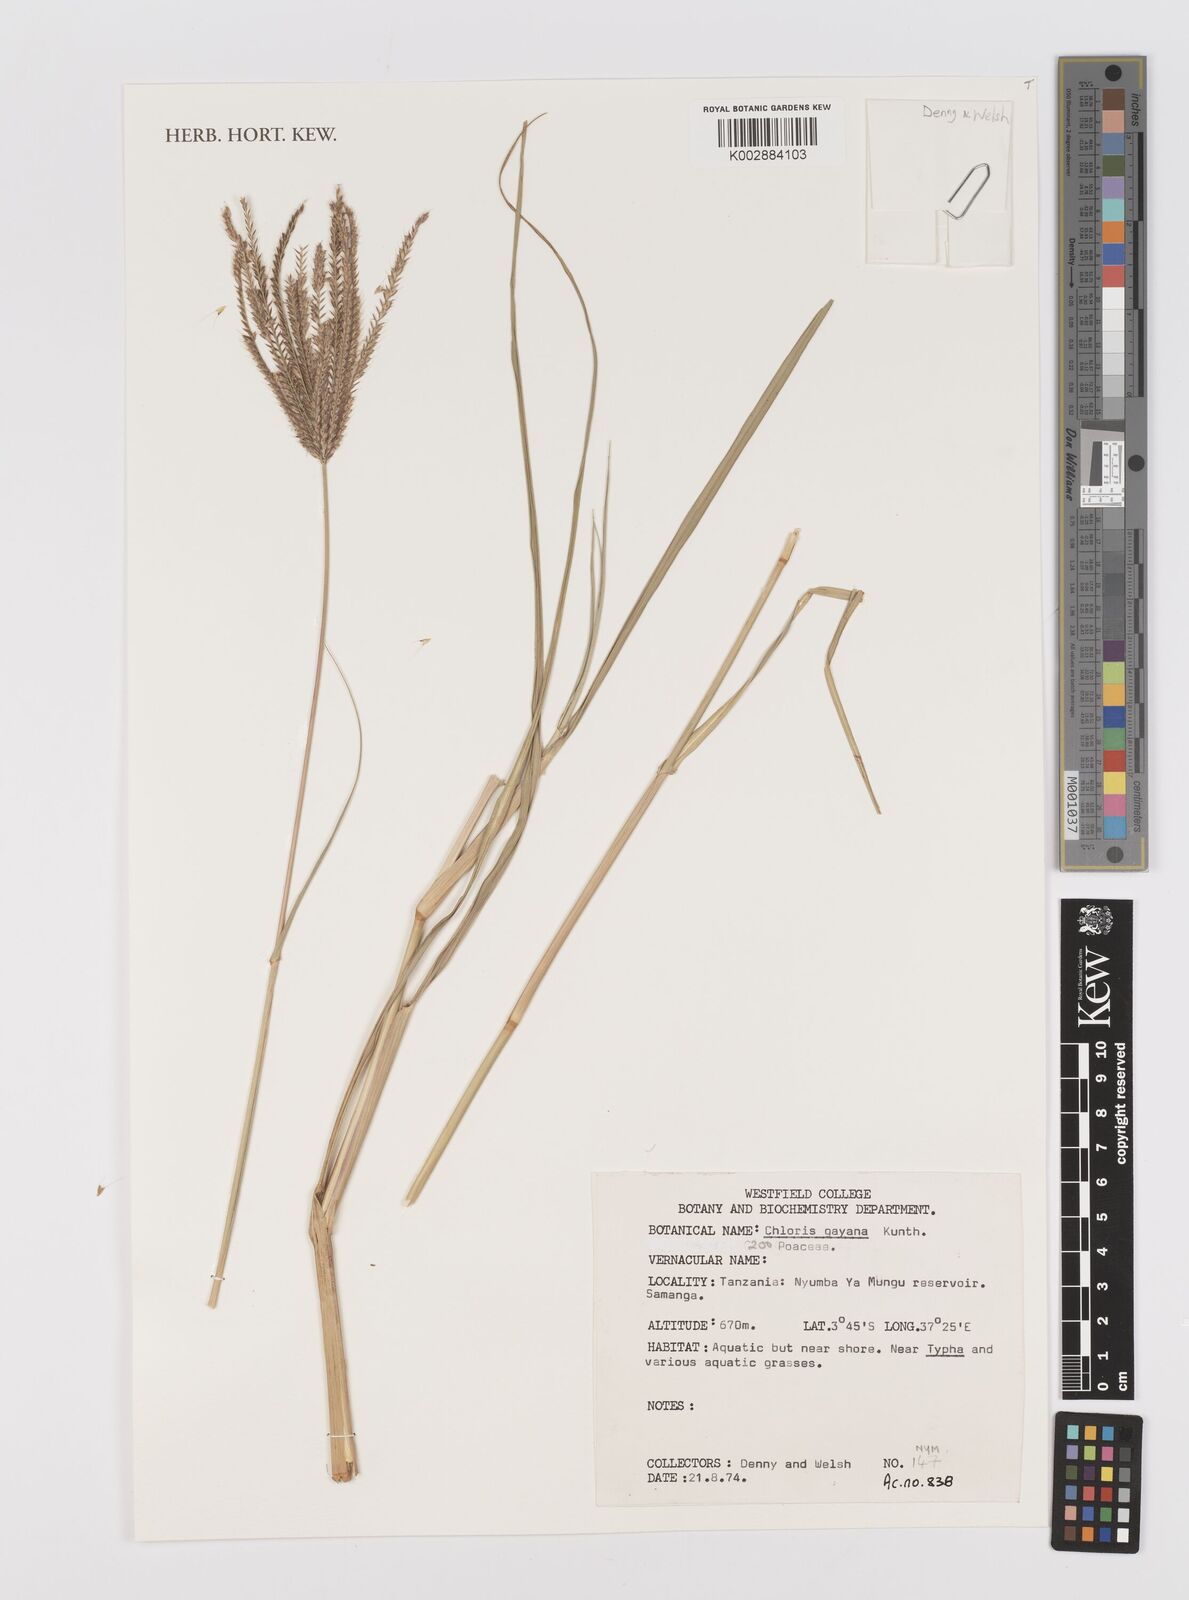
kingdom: Plantae
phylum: Tracheophyta
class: Liliopsida
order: Poales
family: Poaceae
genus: Chloris
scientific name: Chloris gayana
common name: Rhodes grass
